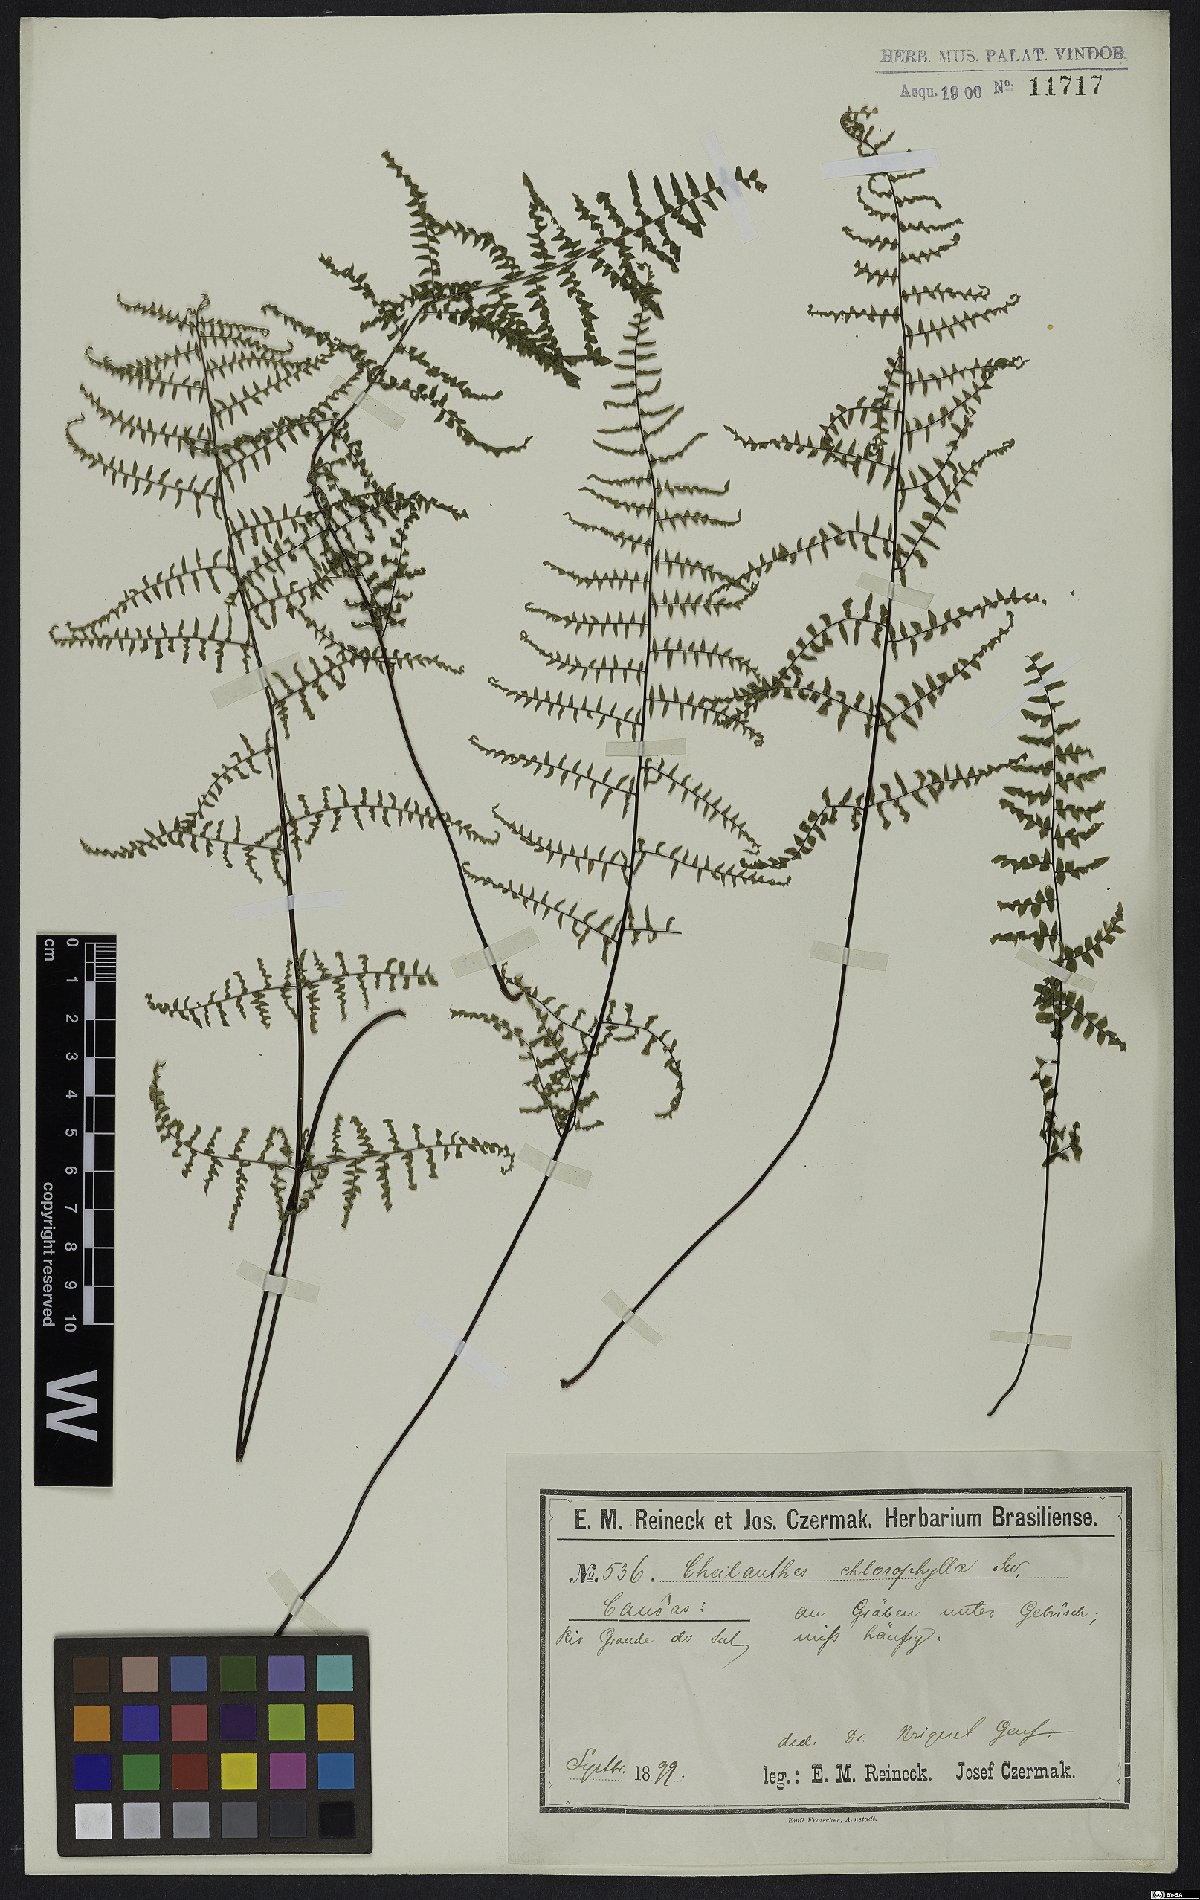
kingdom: Plantae
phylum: Tracheophyta
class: Polypodiopsida
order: Polypodiales
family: Pteridaceae
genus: Adiantopsis
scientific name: Adiantopsis chlorophylla
